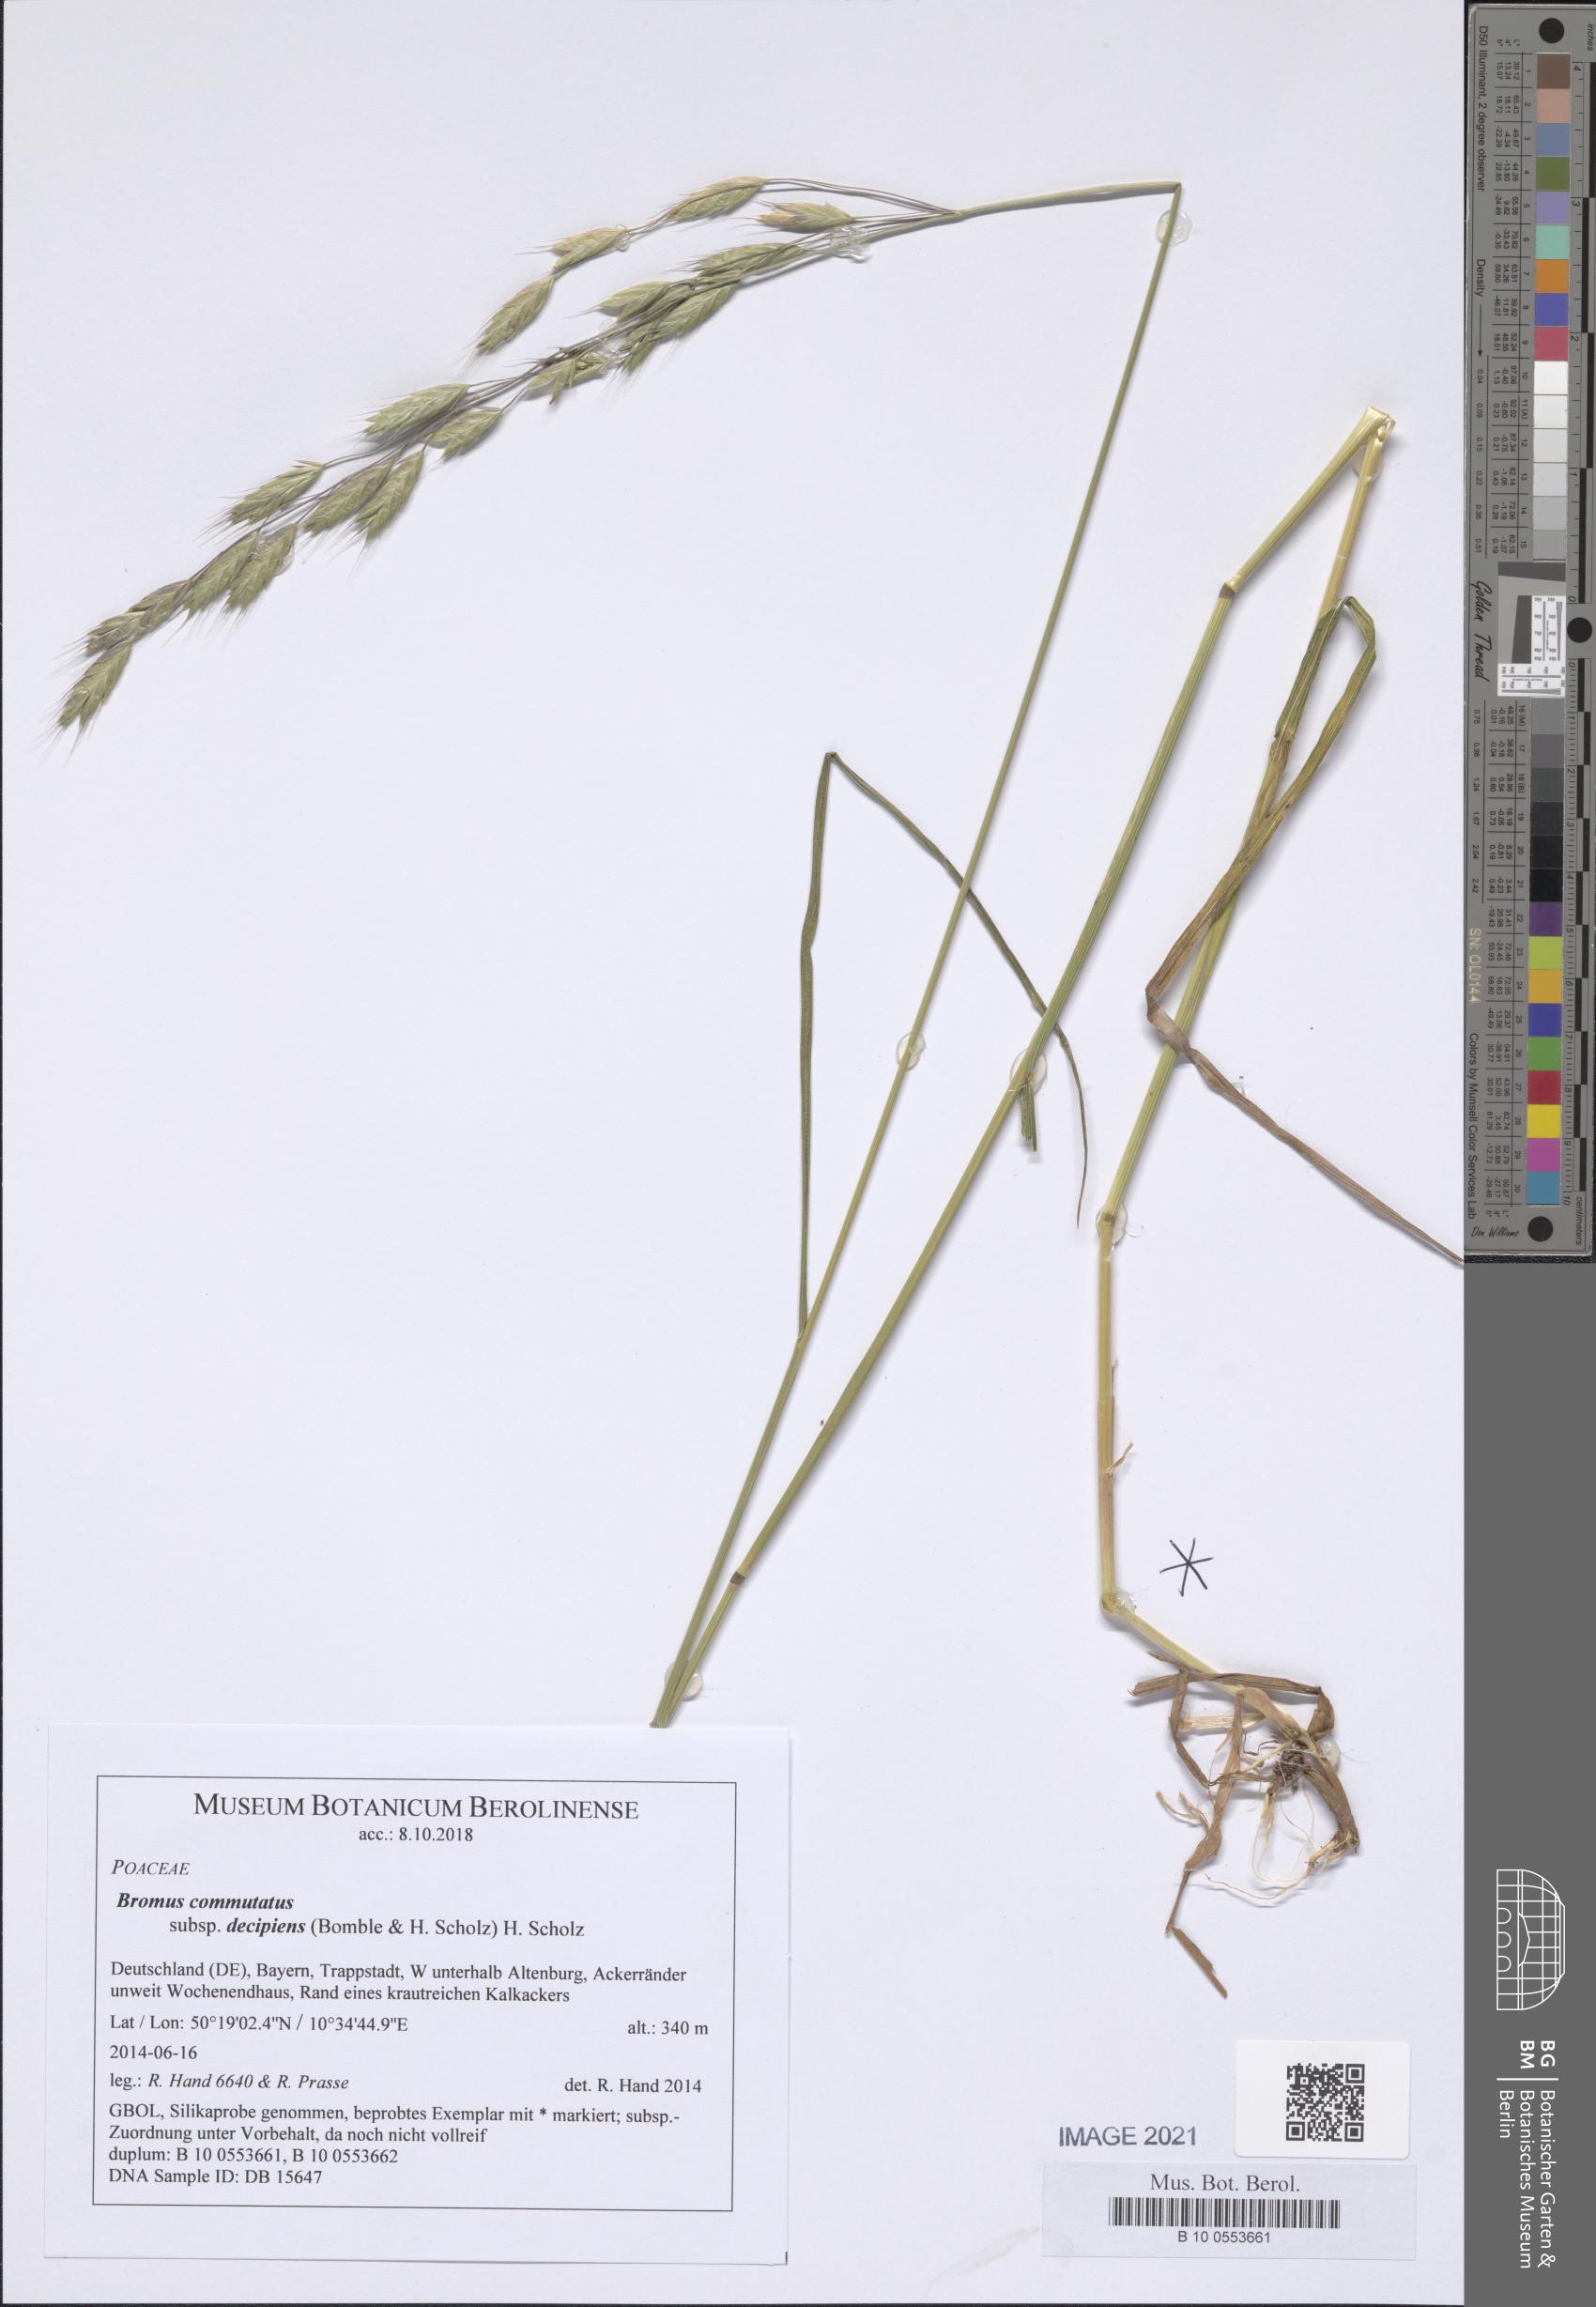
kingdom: Plantae
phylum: Tracheophyta
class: Liliopsida
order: Poales
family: Poaceae
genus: Bromus
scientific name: Bromus commutatus
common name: Meadow brome
